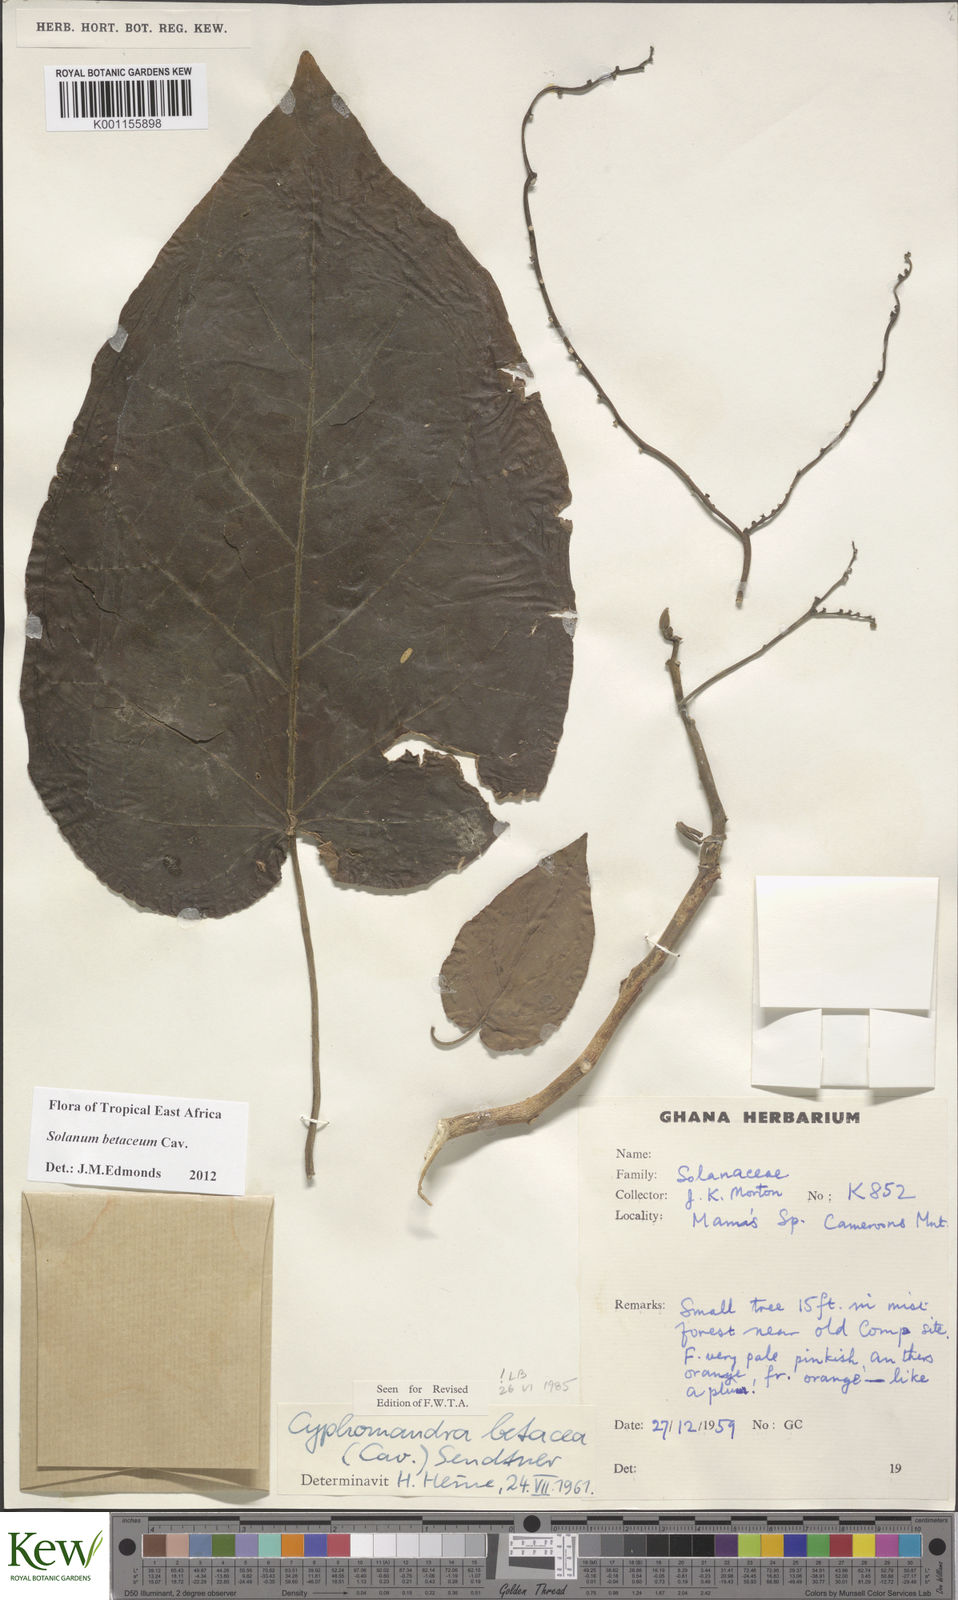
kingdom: Plantae
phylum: Tracheophyta
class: Magnoliopsida
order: Solanales
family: Solanaceae
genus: Solanum
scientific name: Solanum betaceum
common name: Tamarillo
